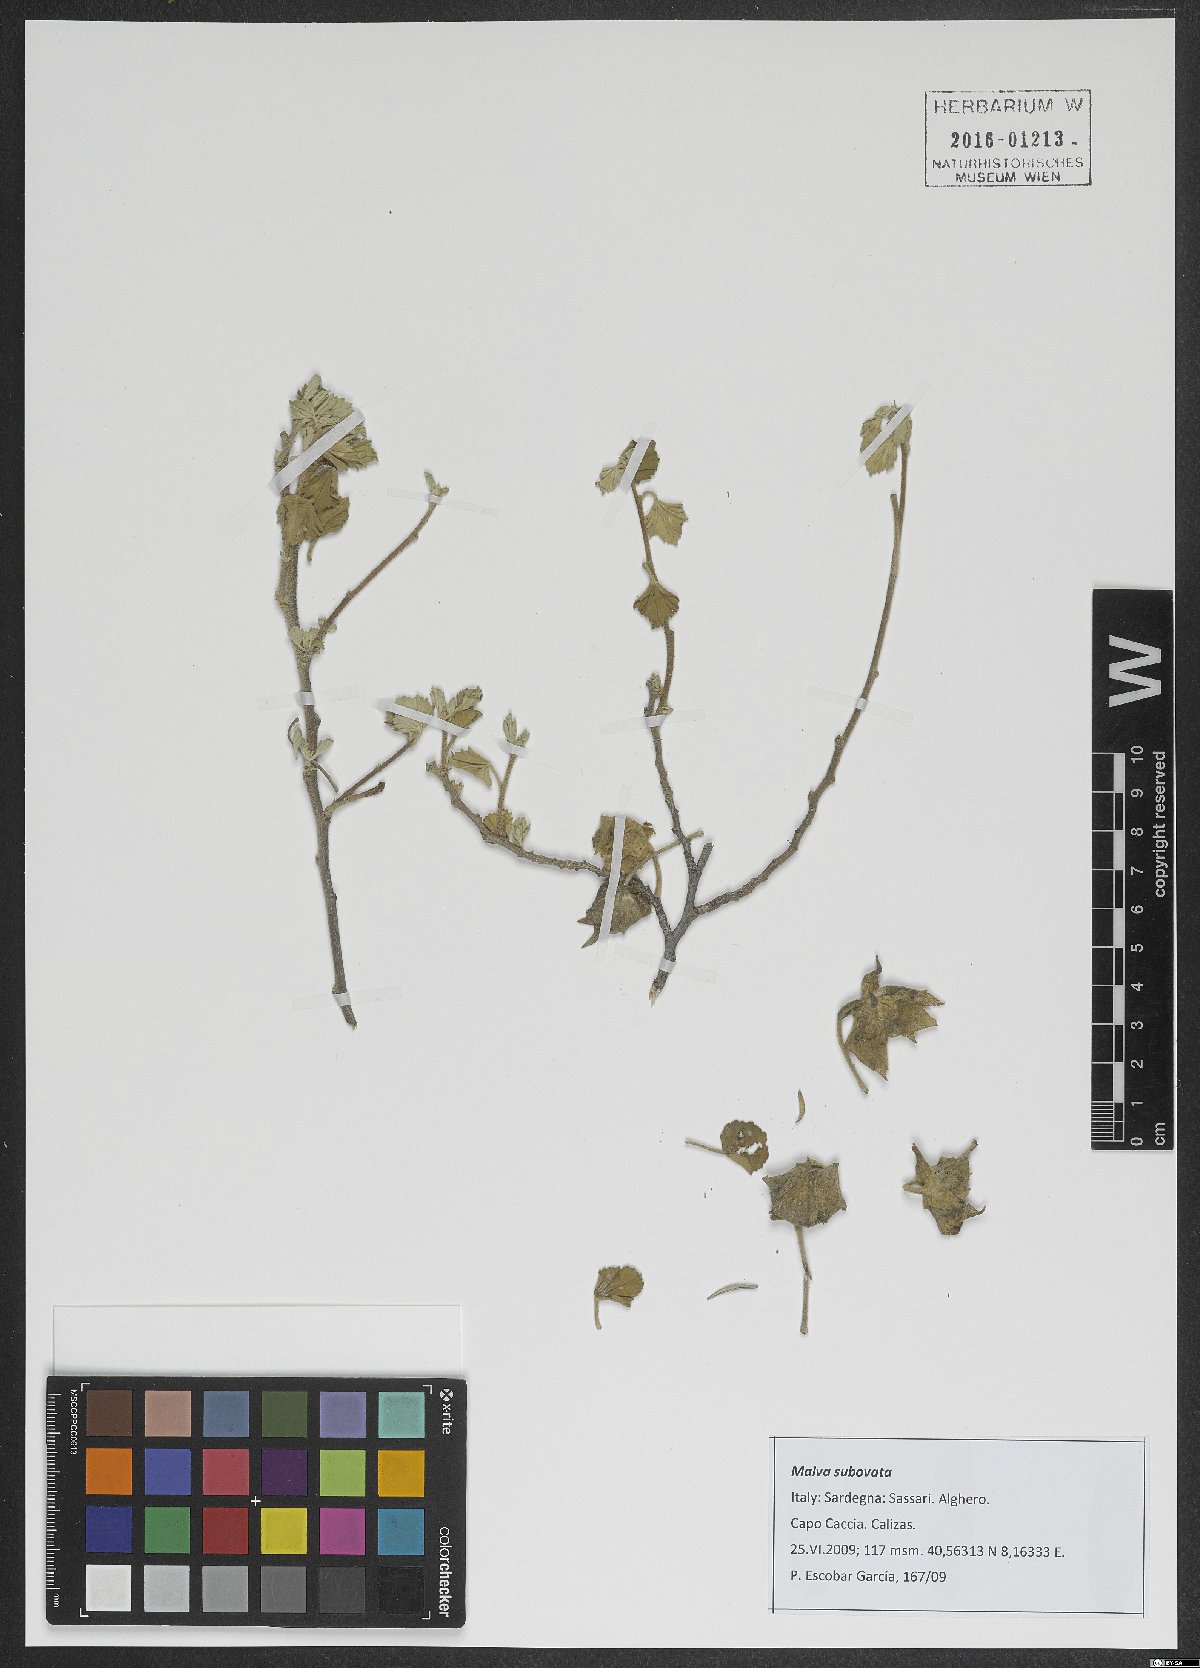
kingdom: Plantae
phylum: Tracheophyta
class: Magnoliopsida
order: Malvales
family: Malvaceae
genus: Malva
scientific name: Malva subovata
